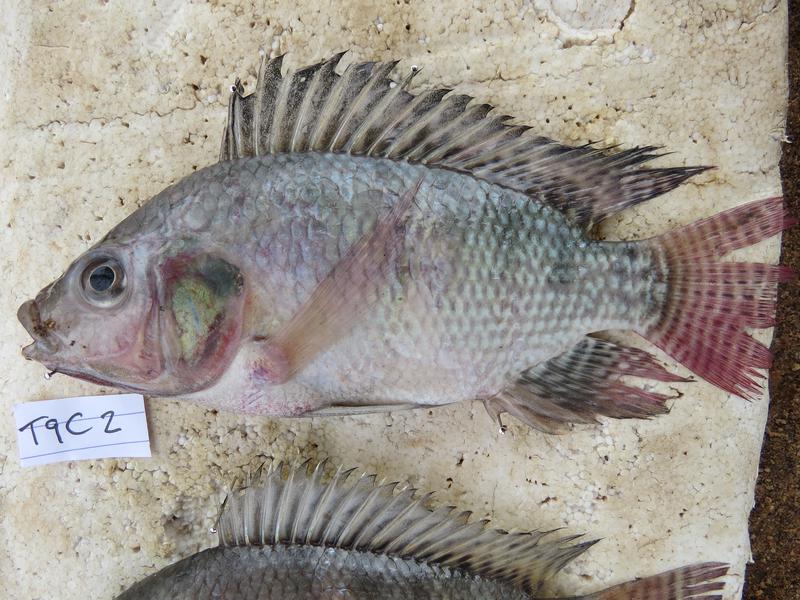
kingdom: Animalia
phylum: Chordata
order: Perciformes
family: Cichlidae
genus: Oreochromis
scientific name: Oreochromis niloticus
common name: Nile tilapia
